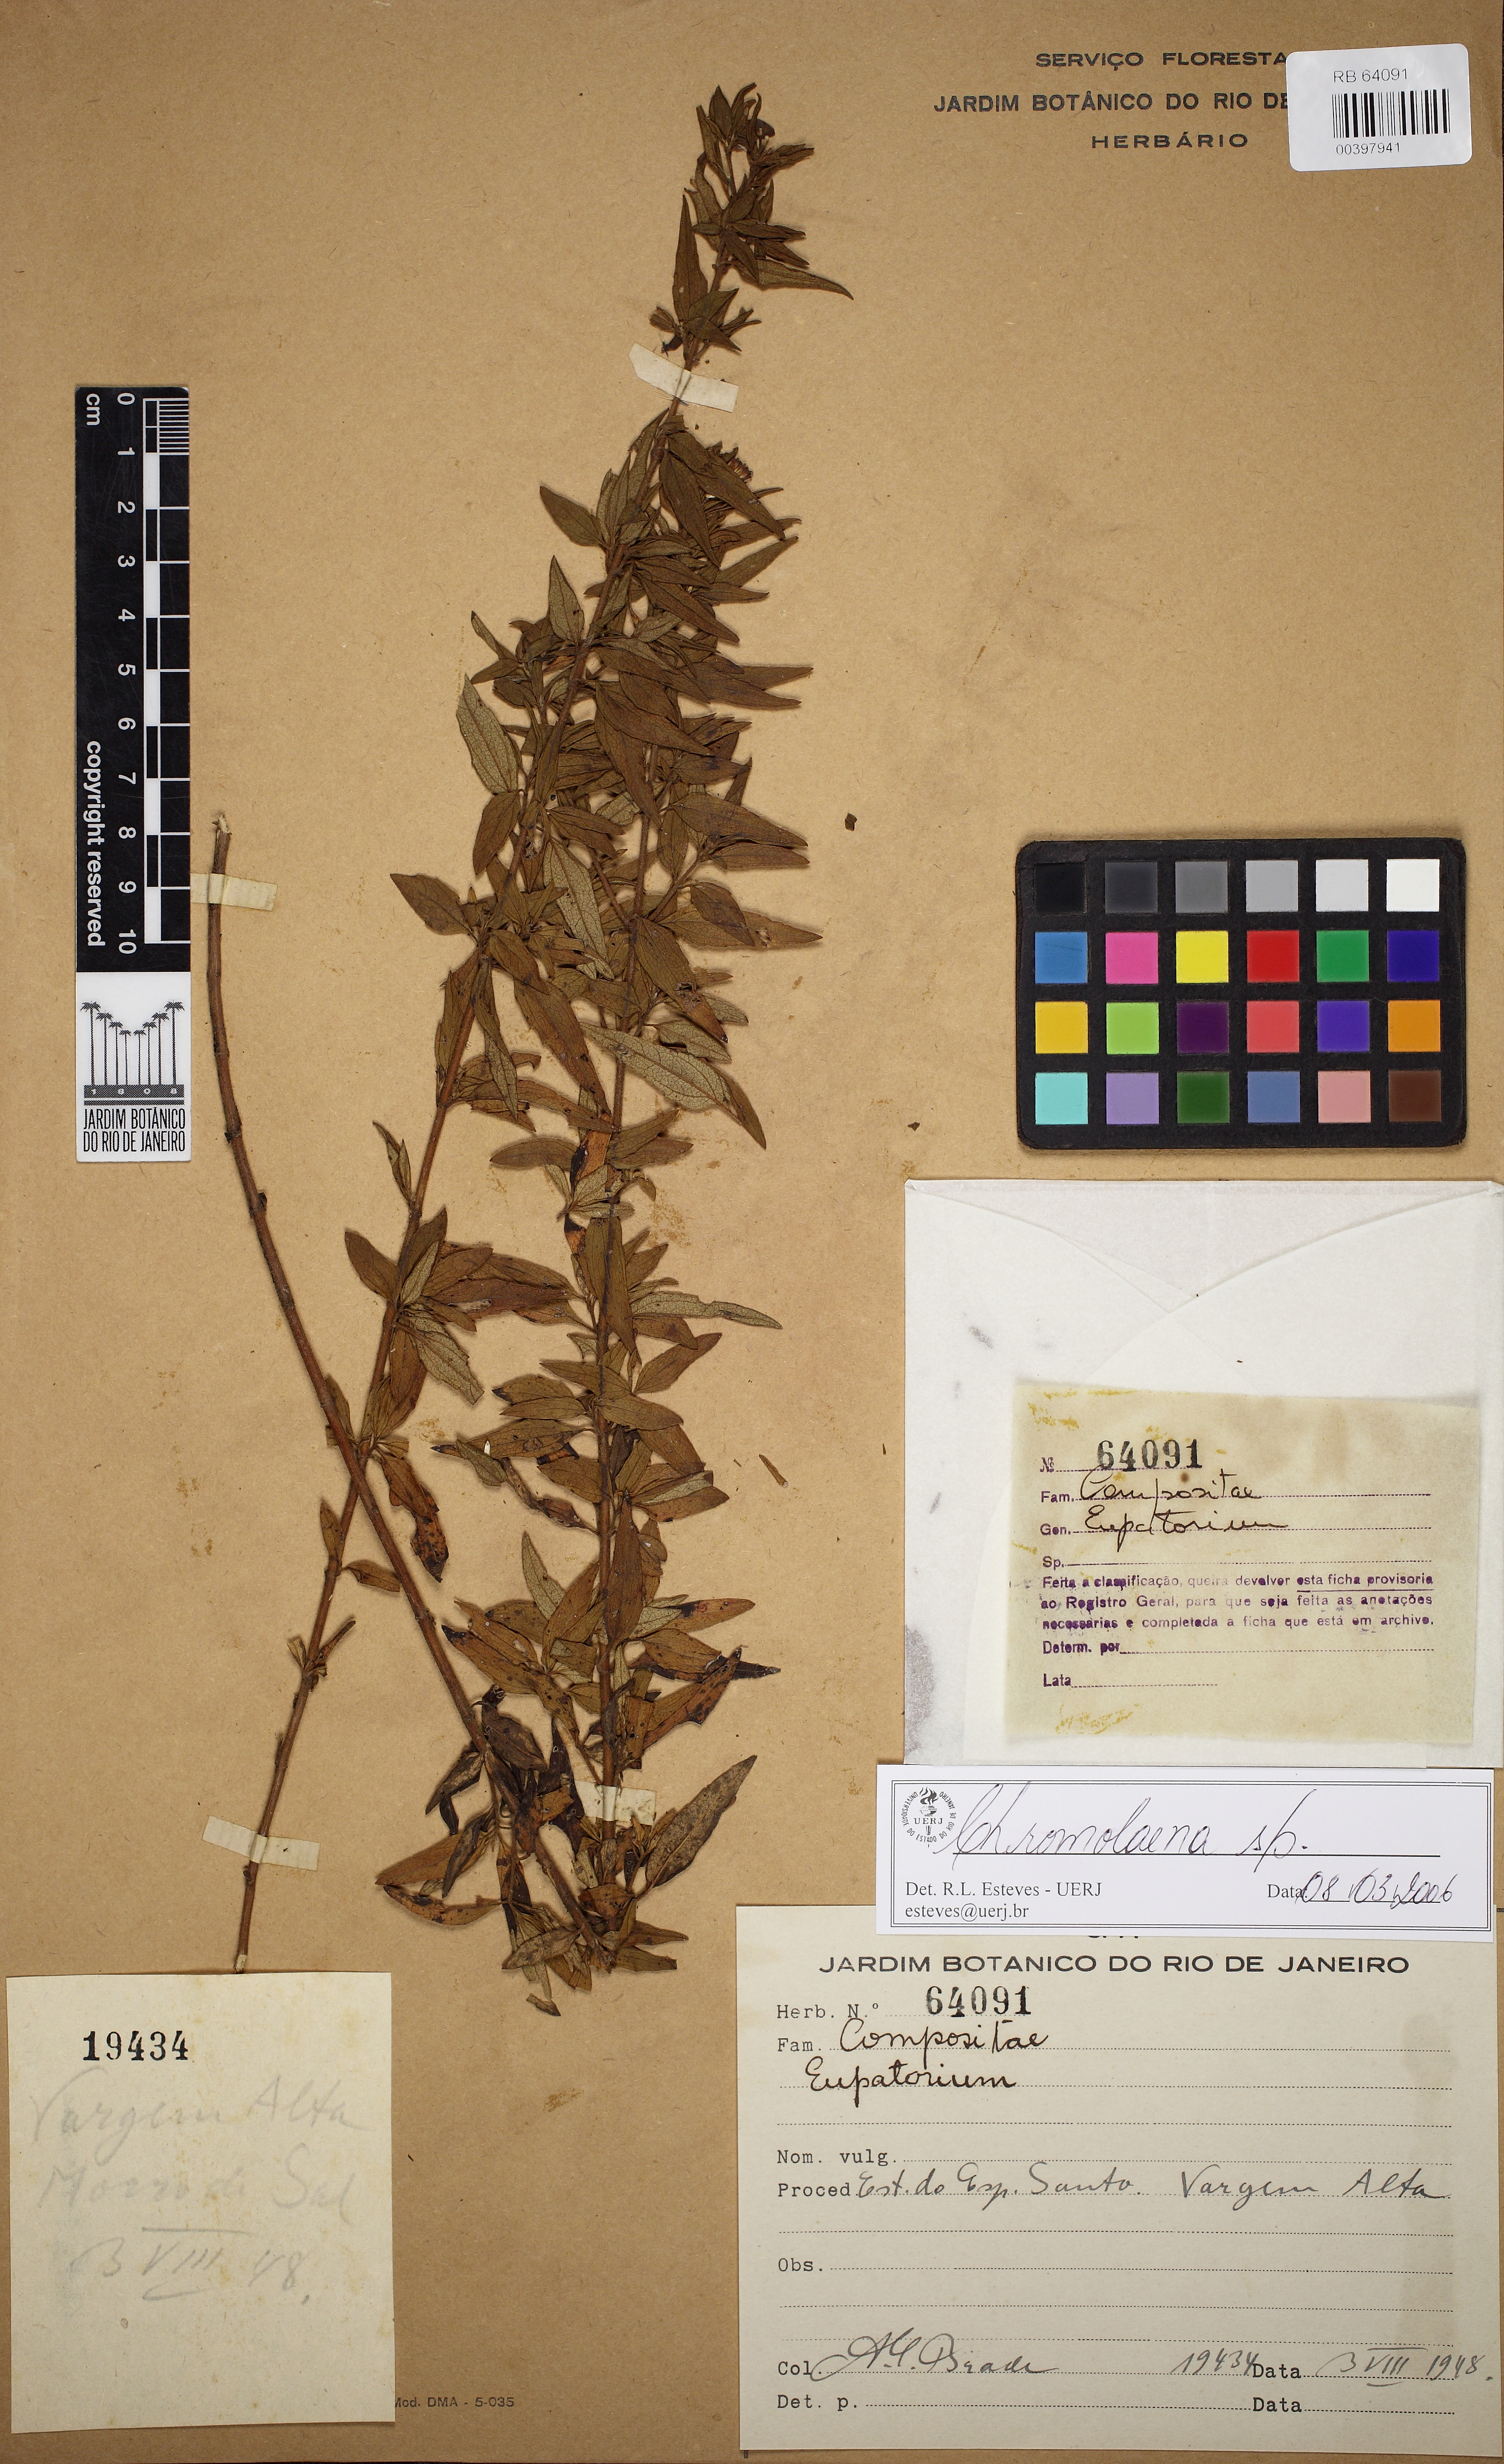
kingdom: Plantae
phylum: Tracheophyta
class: Magnoliopsida
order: Asterales
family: Asteraceae
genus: Chromolaena
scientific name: Chromolaena
